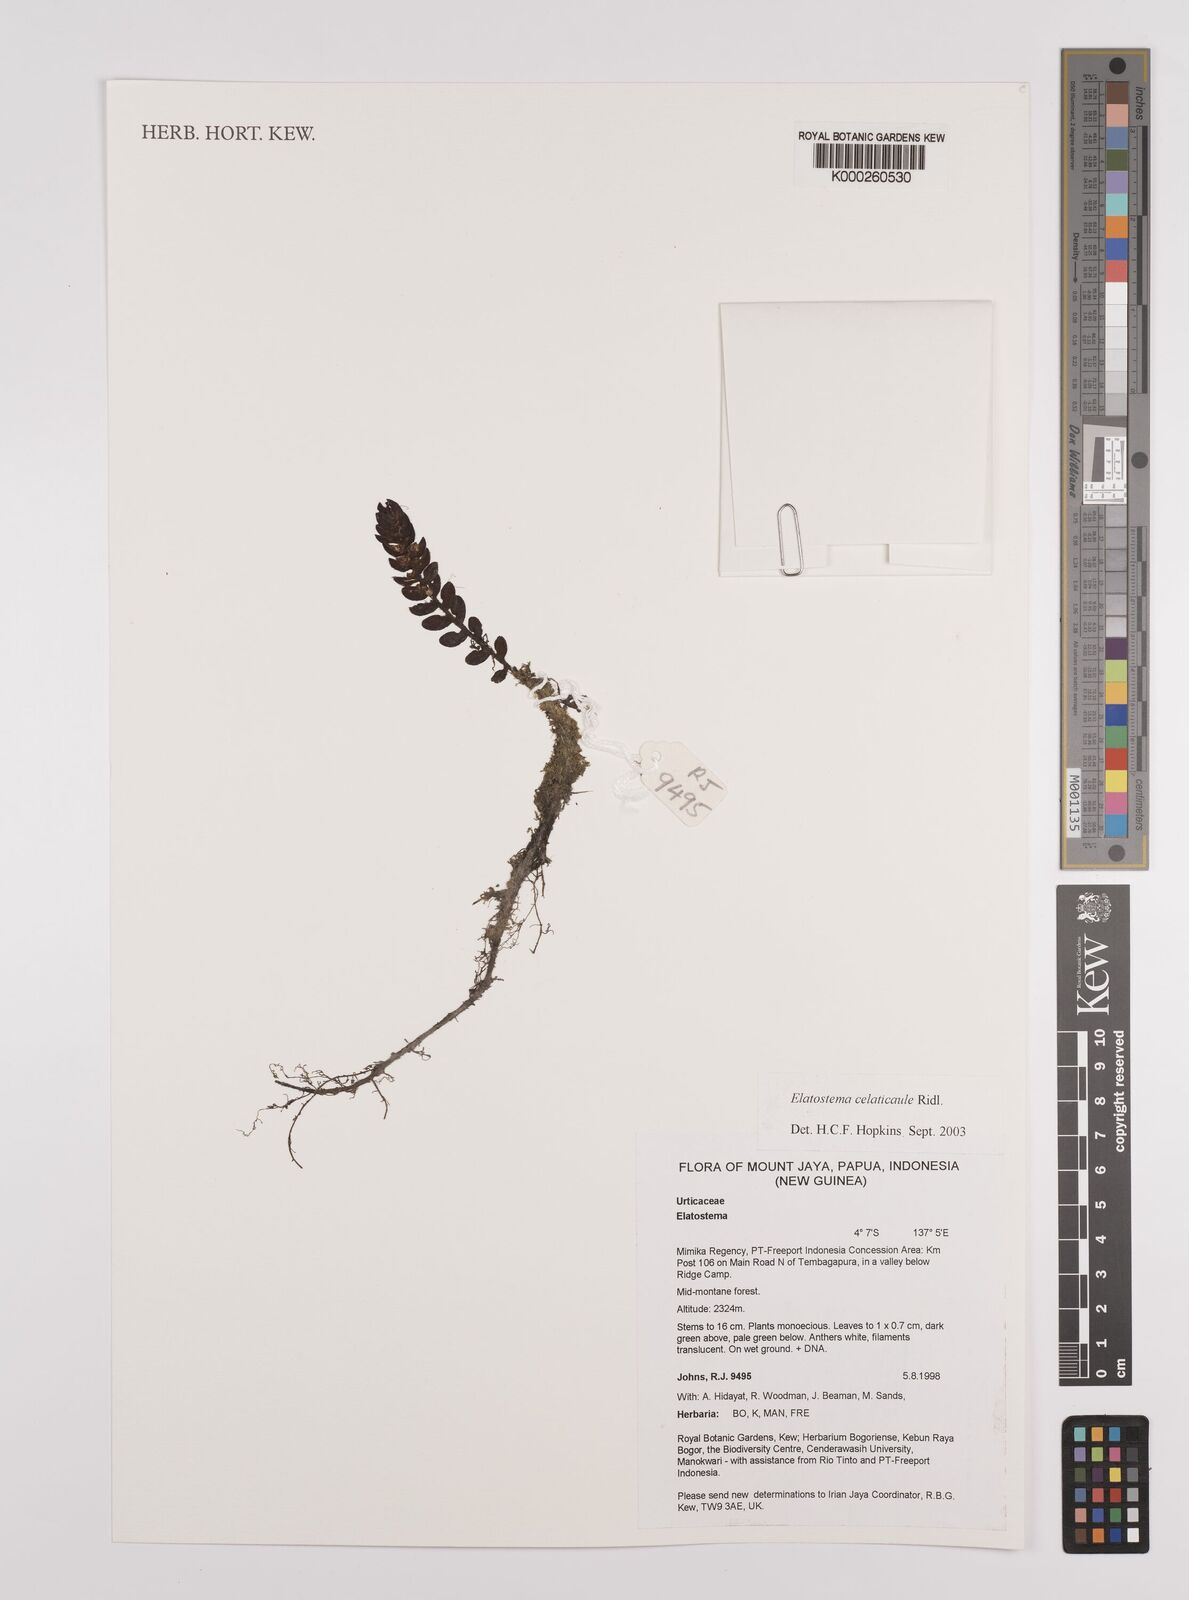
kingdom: Plantae
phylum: Tracheophyta
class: Magnoliopsida
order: Rosales
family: Urticaceae
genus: Elatostema
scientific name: Elatostema celaticaule
